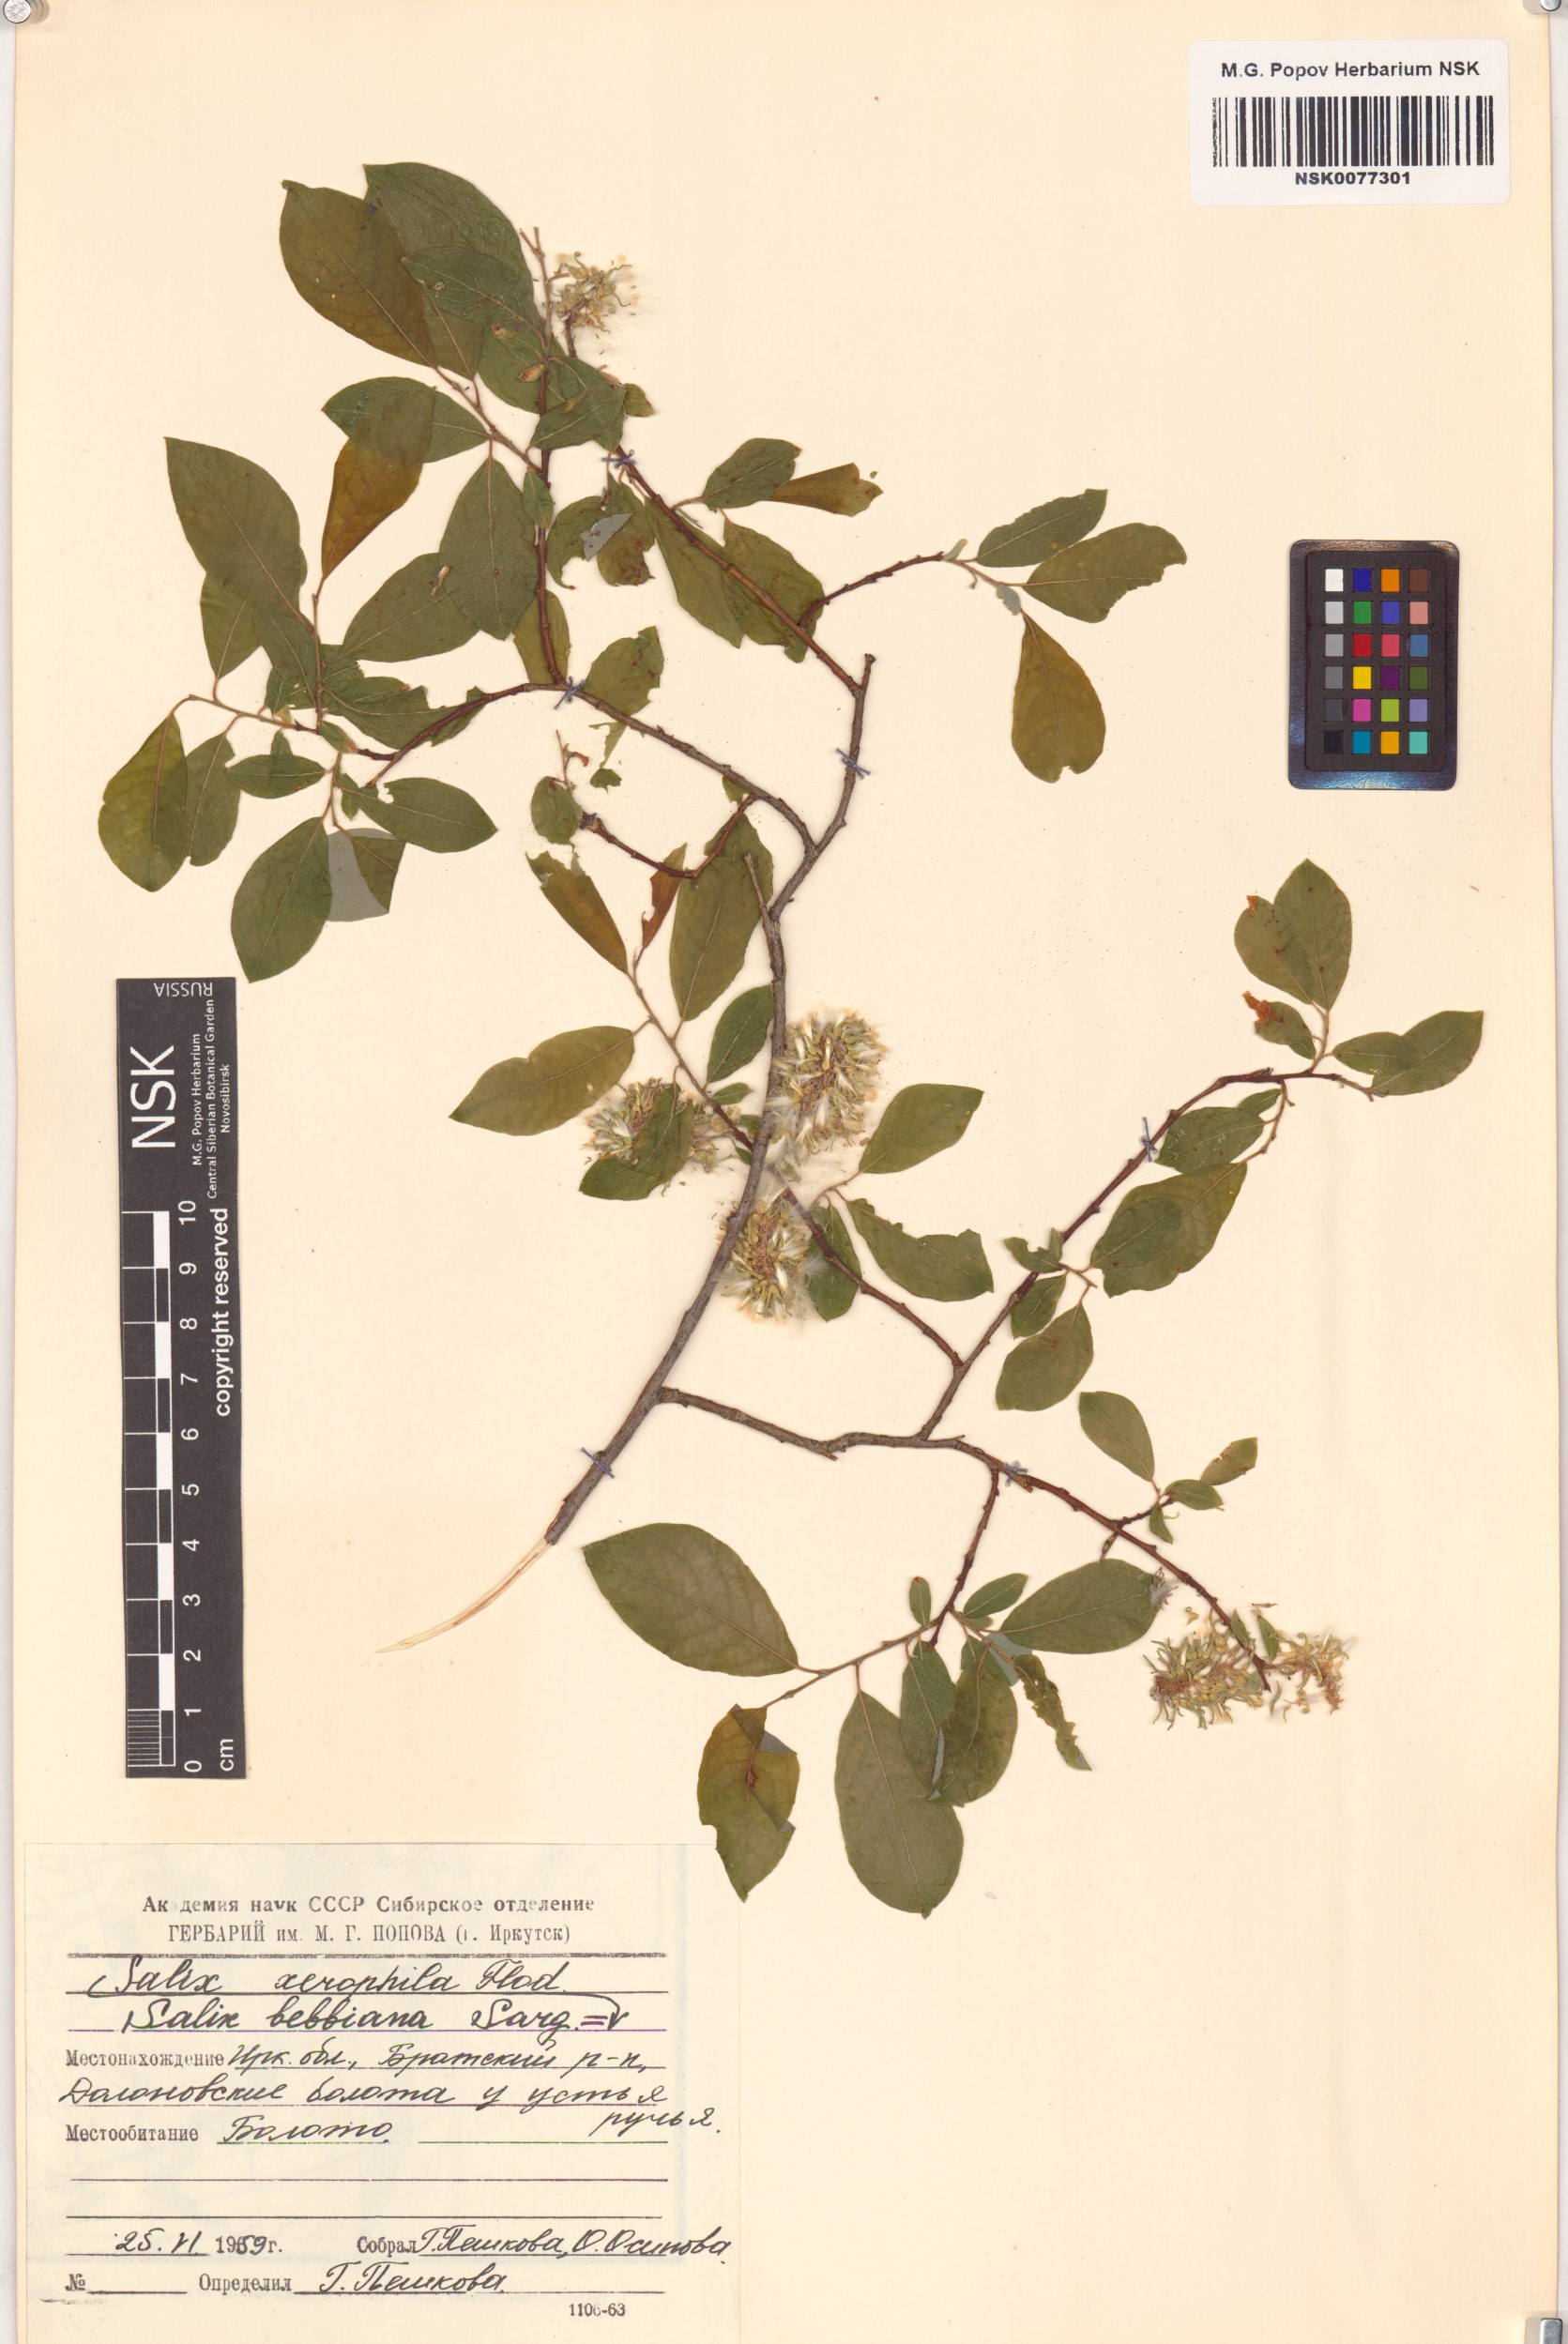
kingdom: Plantae
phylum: Tracheophyta
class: Magnoliopsida
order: Malpighiales
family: Salicaceae
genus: Salix
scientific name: Salix bebbiana
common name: Bebb's willow
